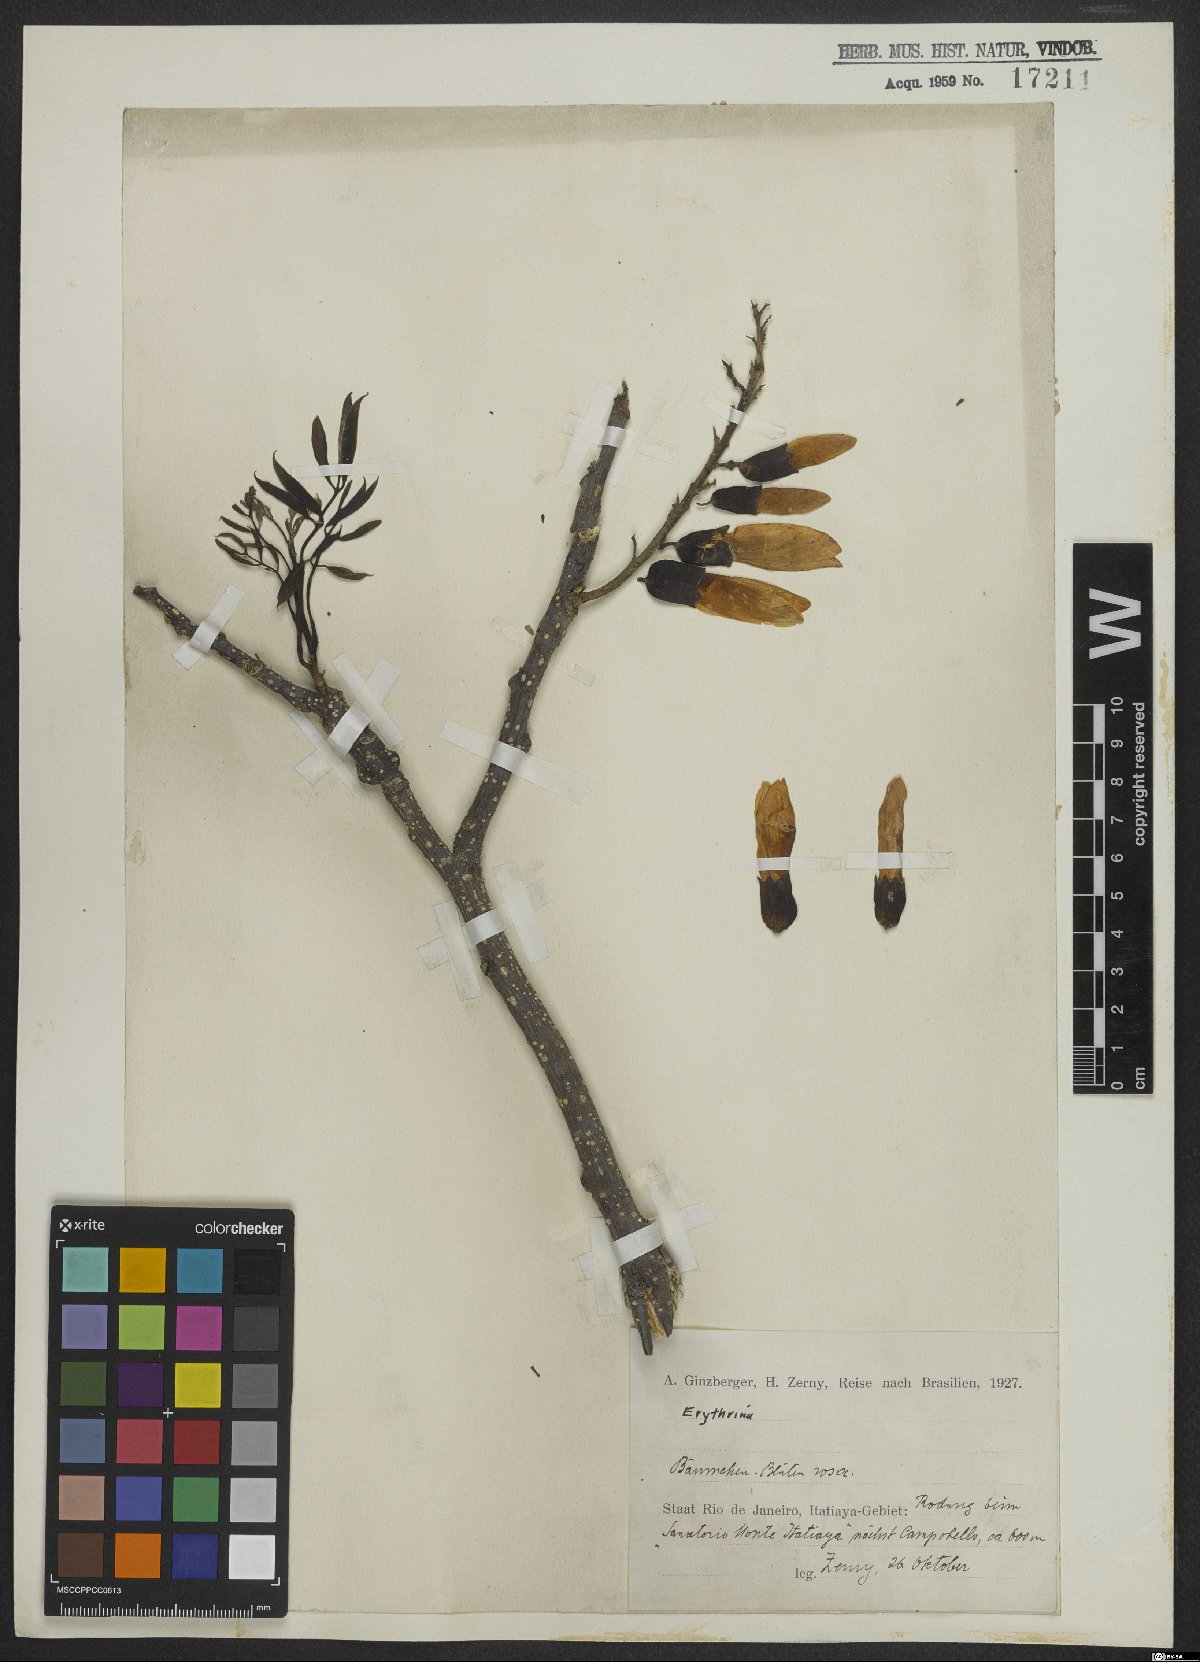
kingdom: Plantae
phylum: Tracheophyta
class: Magnoliopsida
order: Fabales
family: Fabaceae
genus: Erythrina
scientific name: Erythrina speciosa
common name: Coral tree
